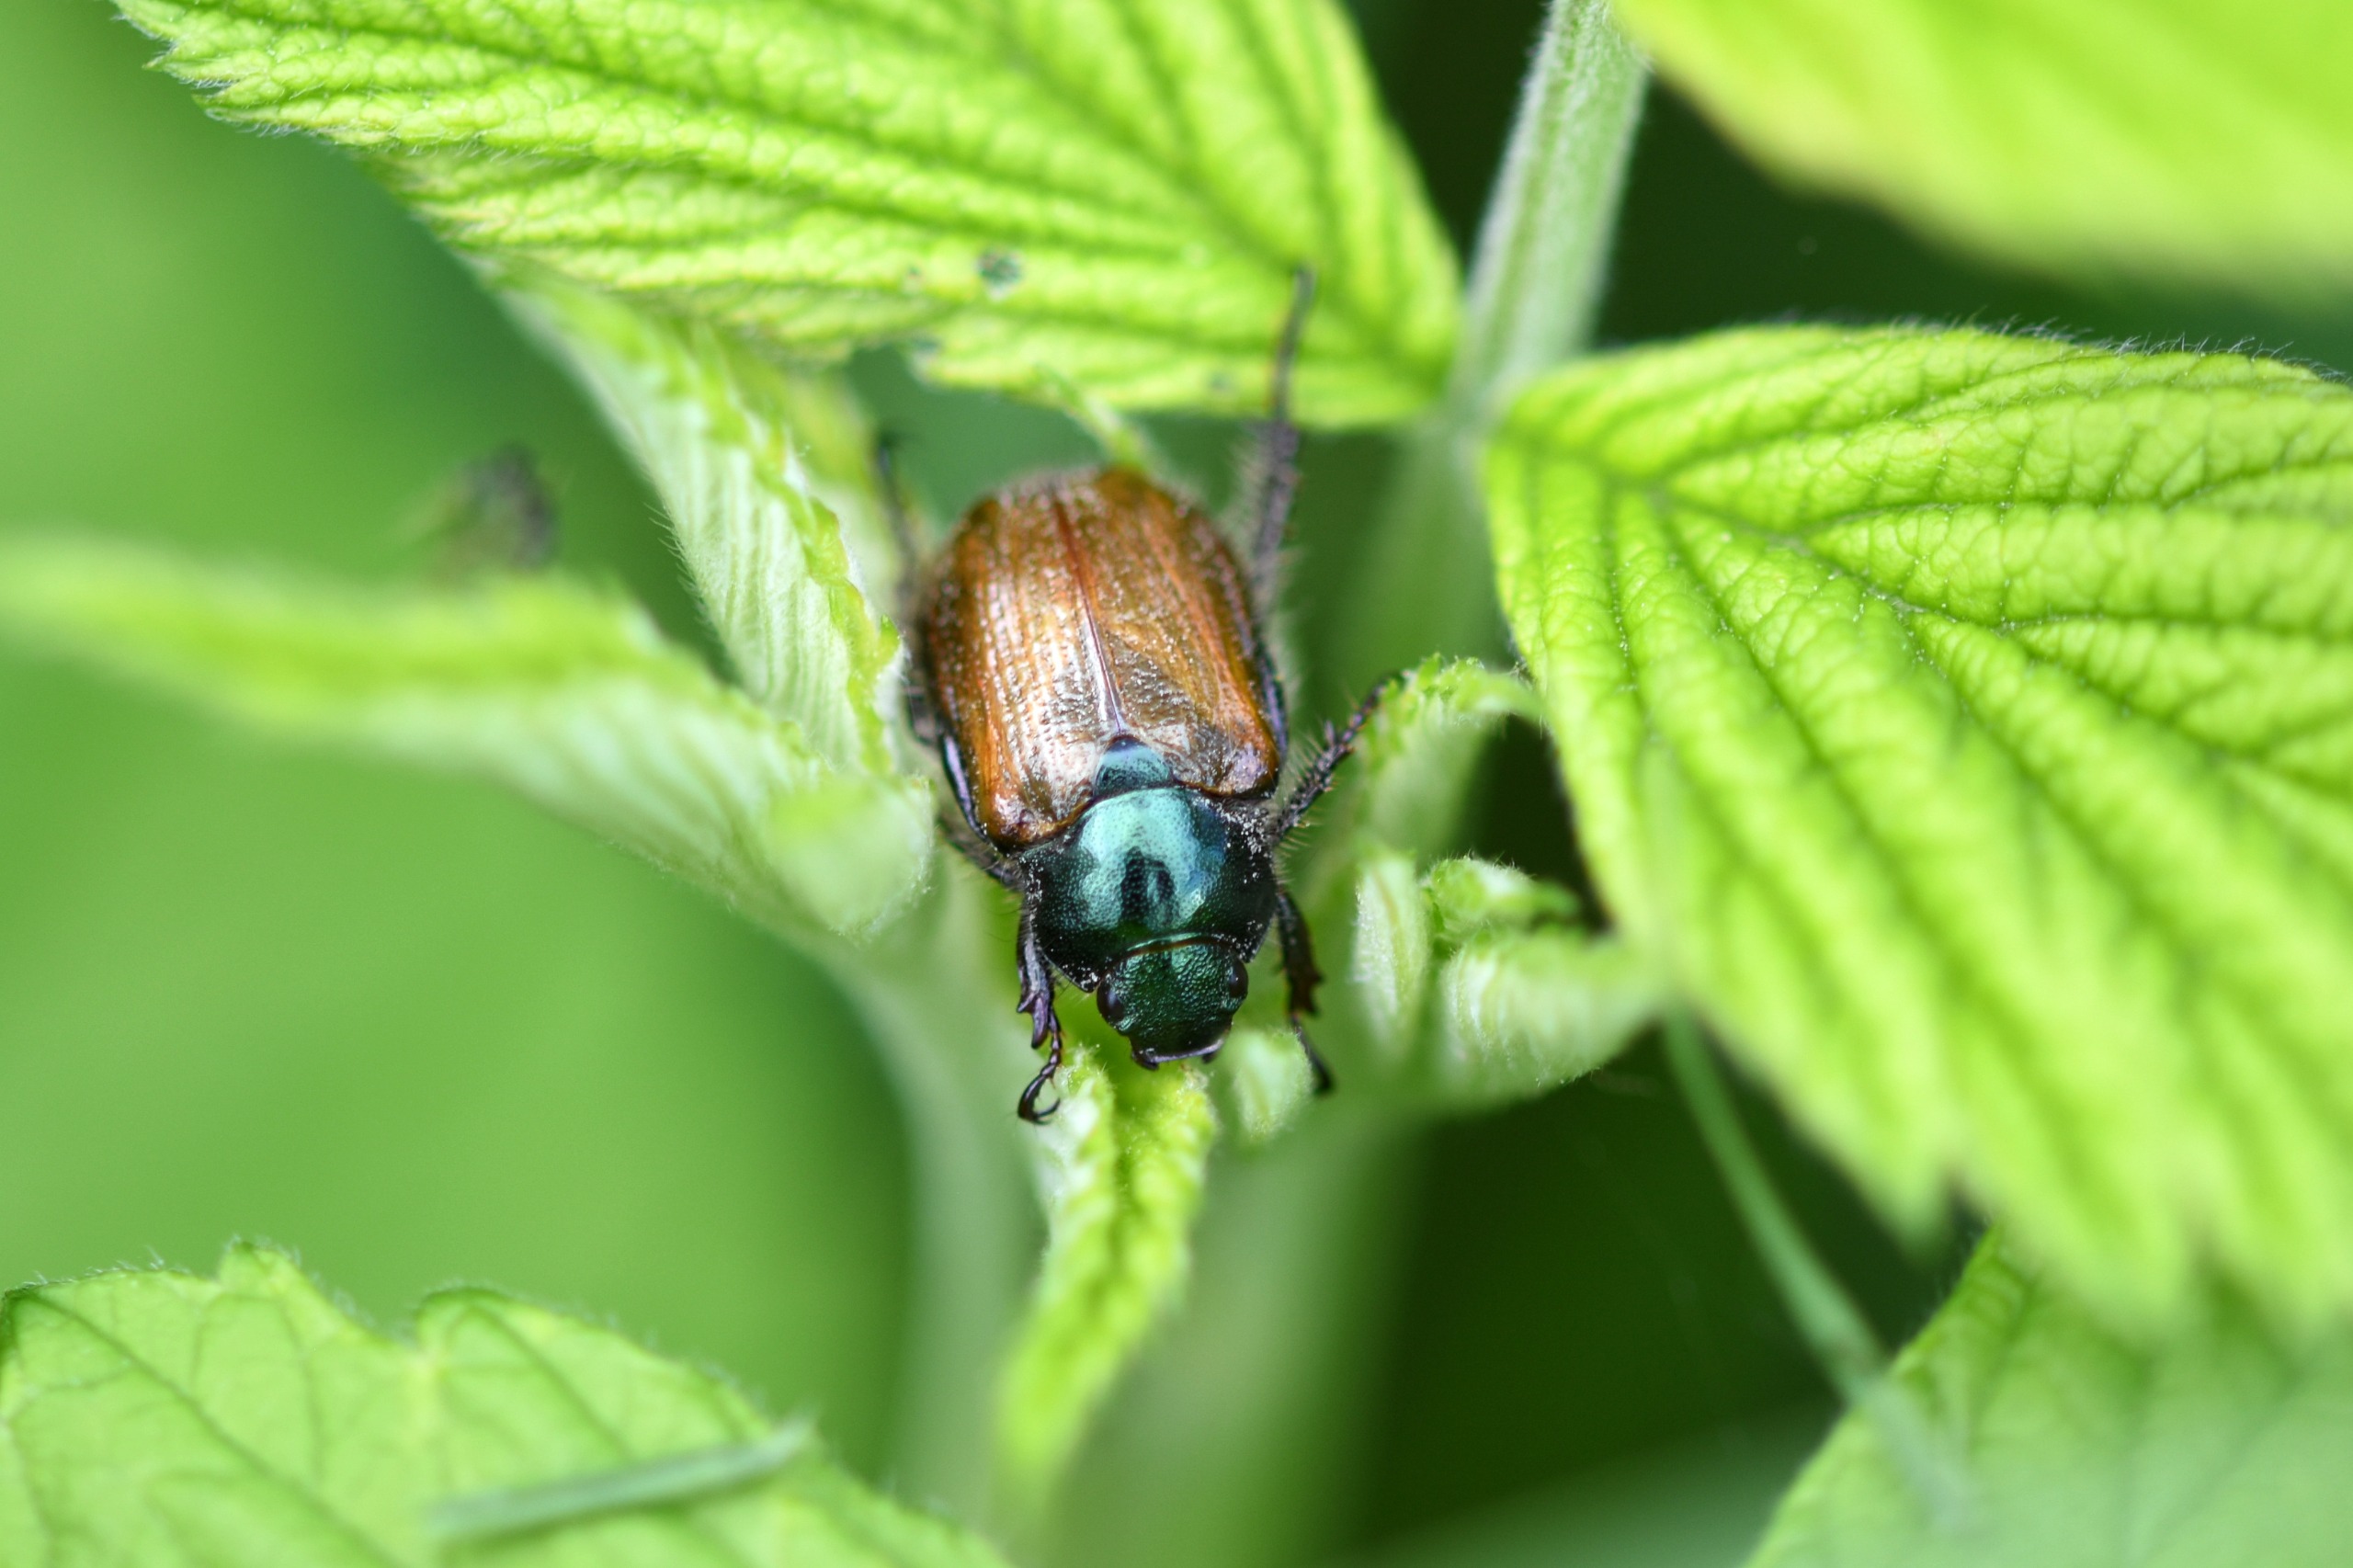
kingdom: Animalia
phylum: Arthropoda
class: Insecta
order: Coleoptera
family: Scarabaeidae
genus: Phyllopertha
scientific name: Phyllopertha horticola
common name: Gåsebille
